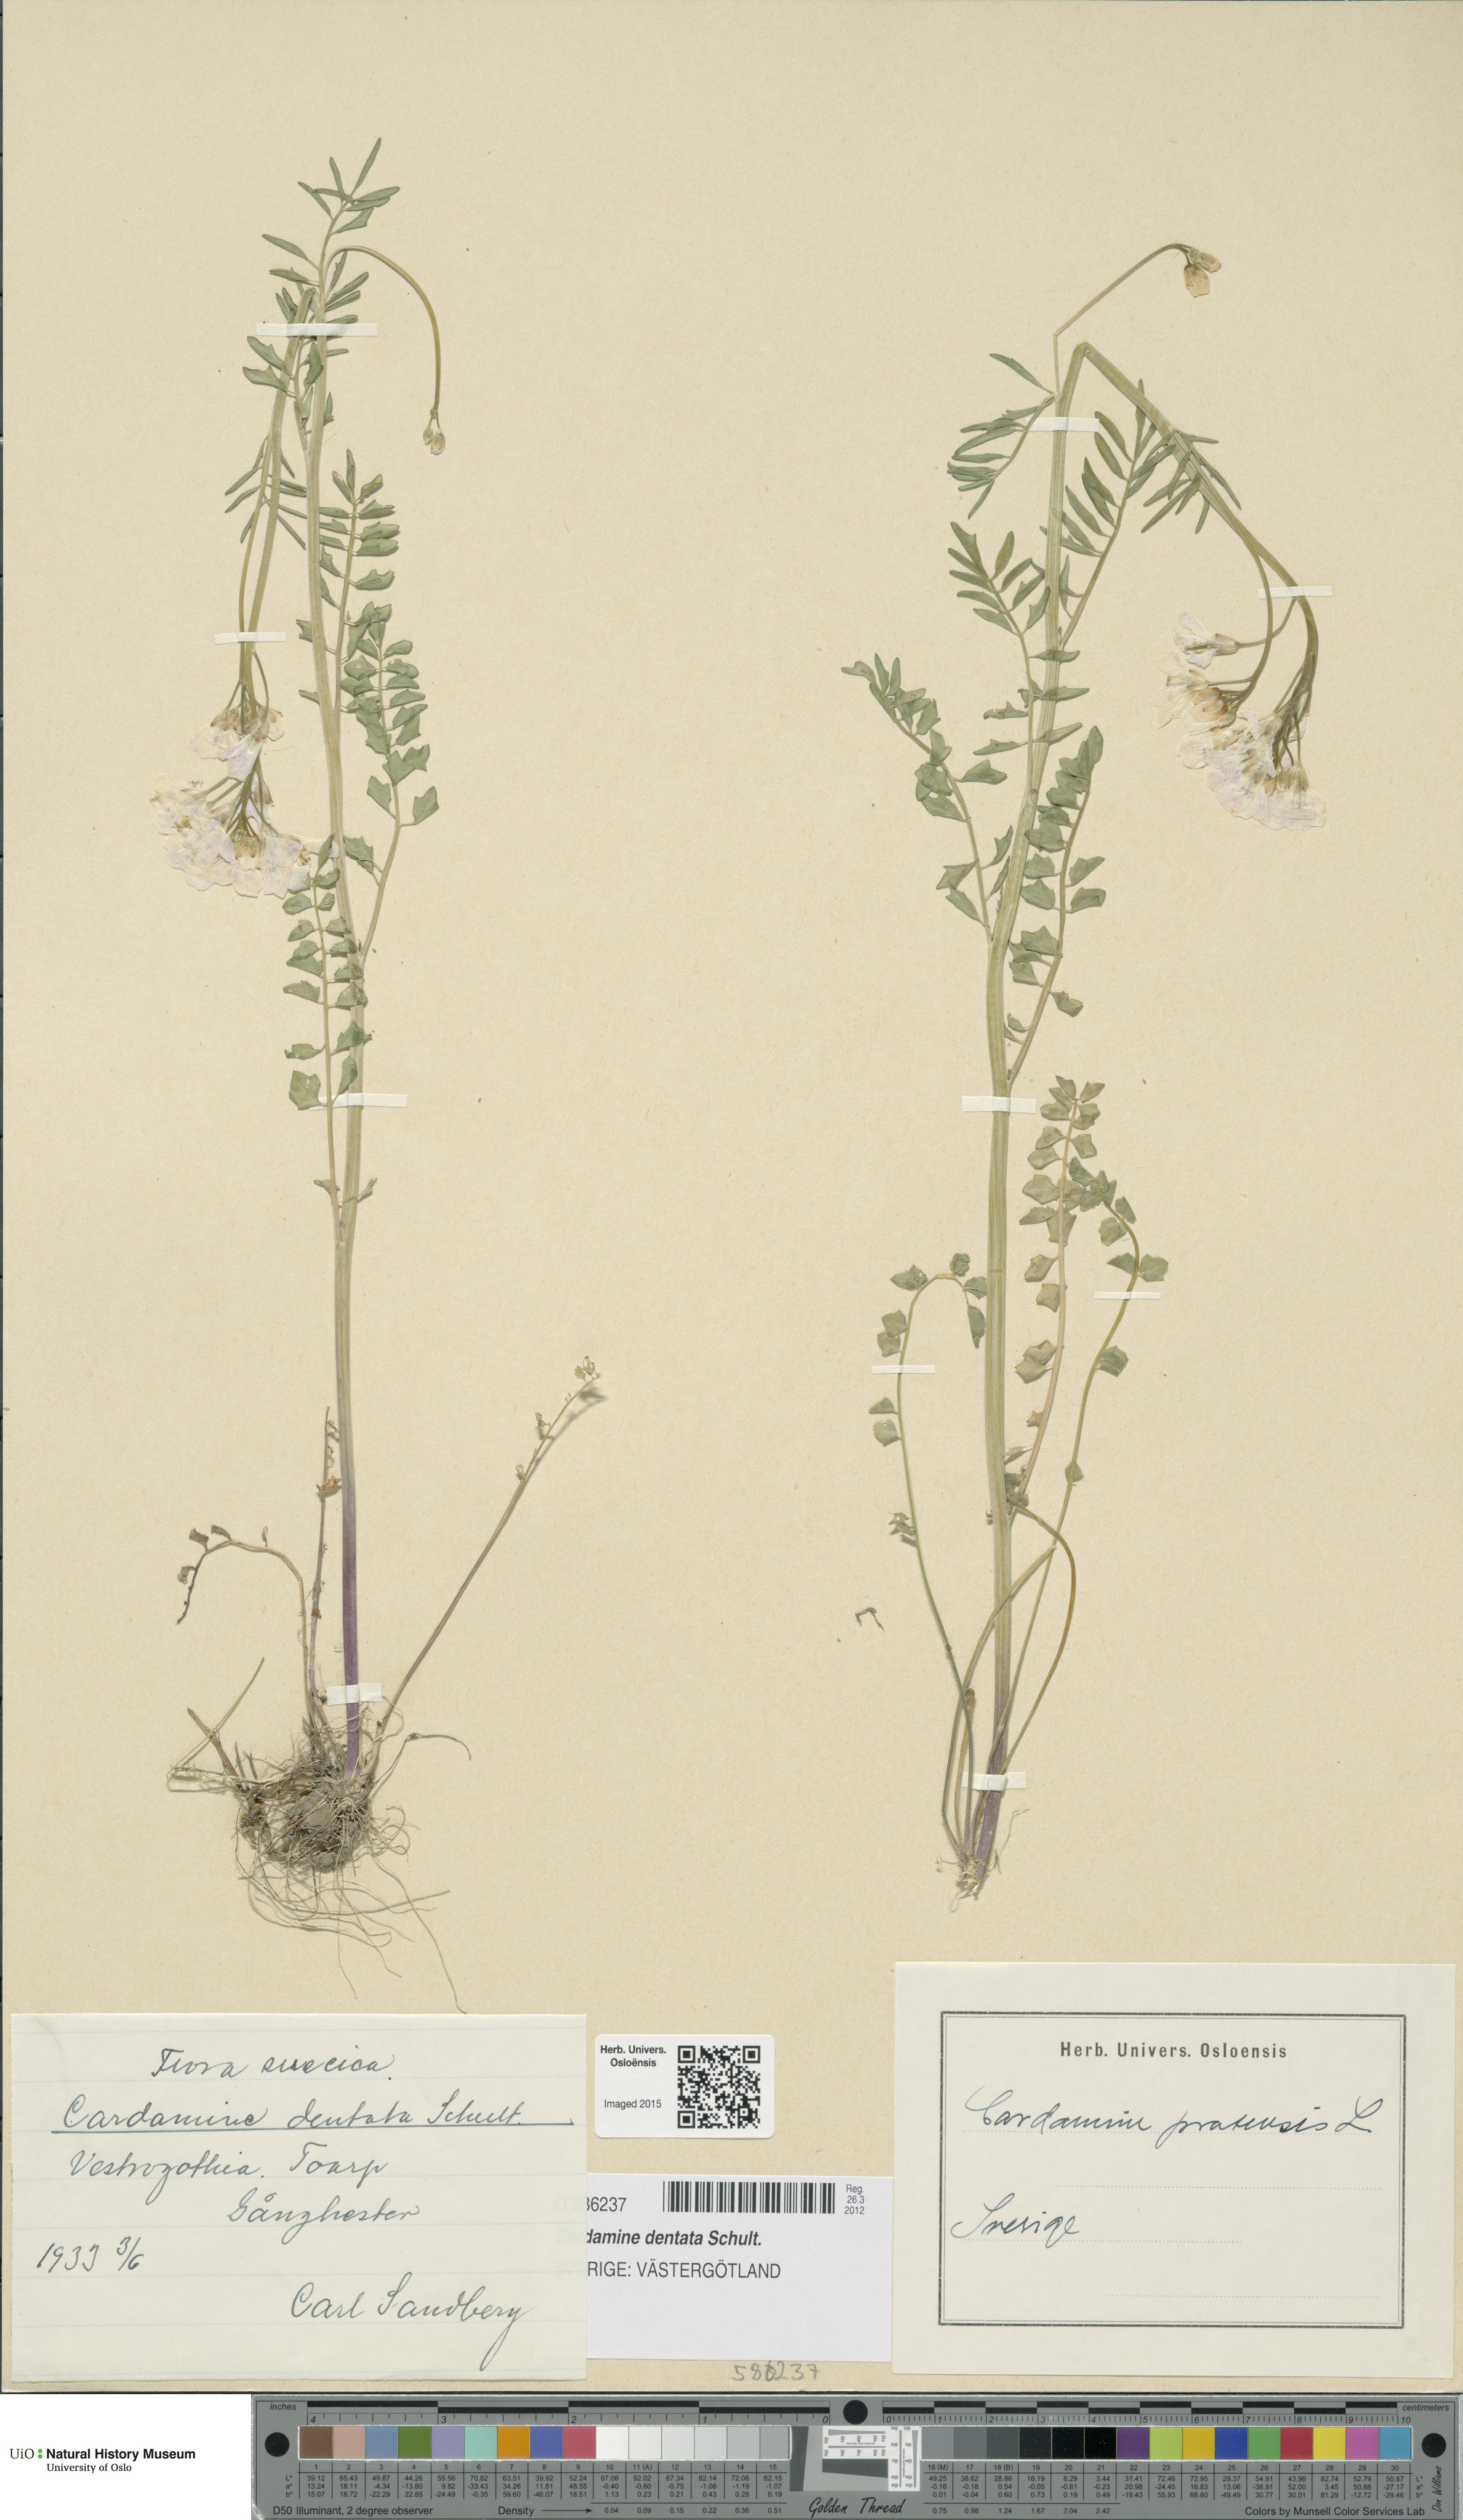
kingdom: Plantae
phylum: Tracheophyta
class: Magnoliopsida
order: Brassicales
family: Brassicaceae
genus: Cardamine
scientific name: Cardamine dentata
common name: Toothed bittercress
